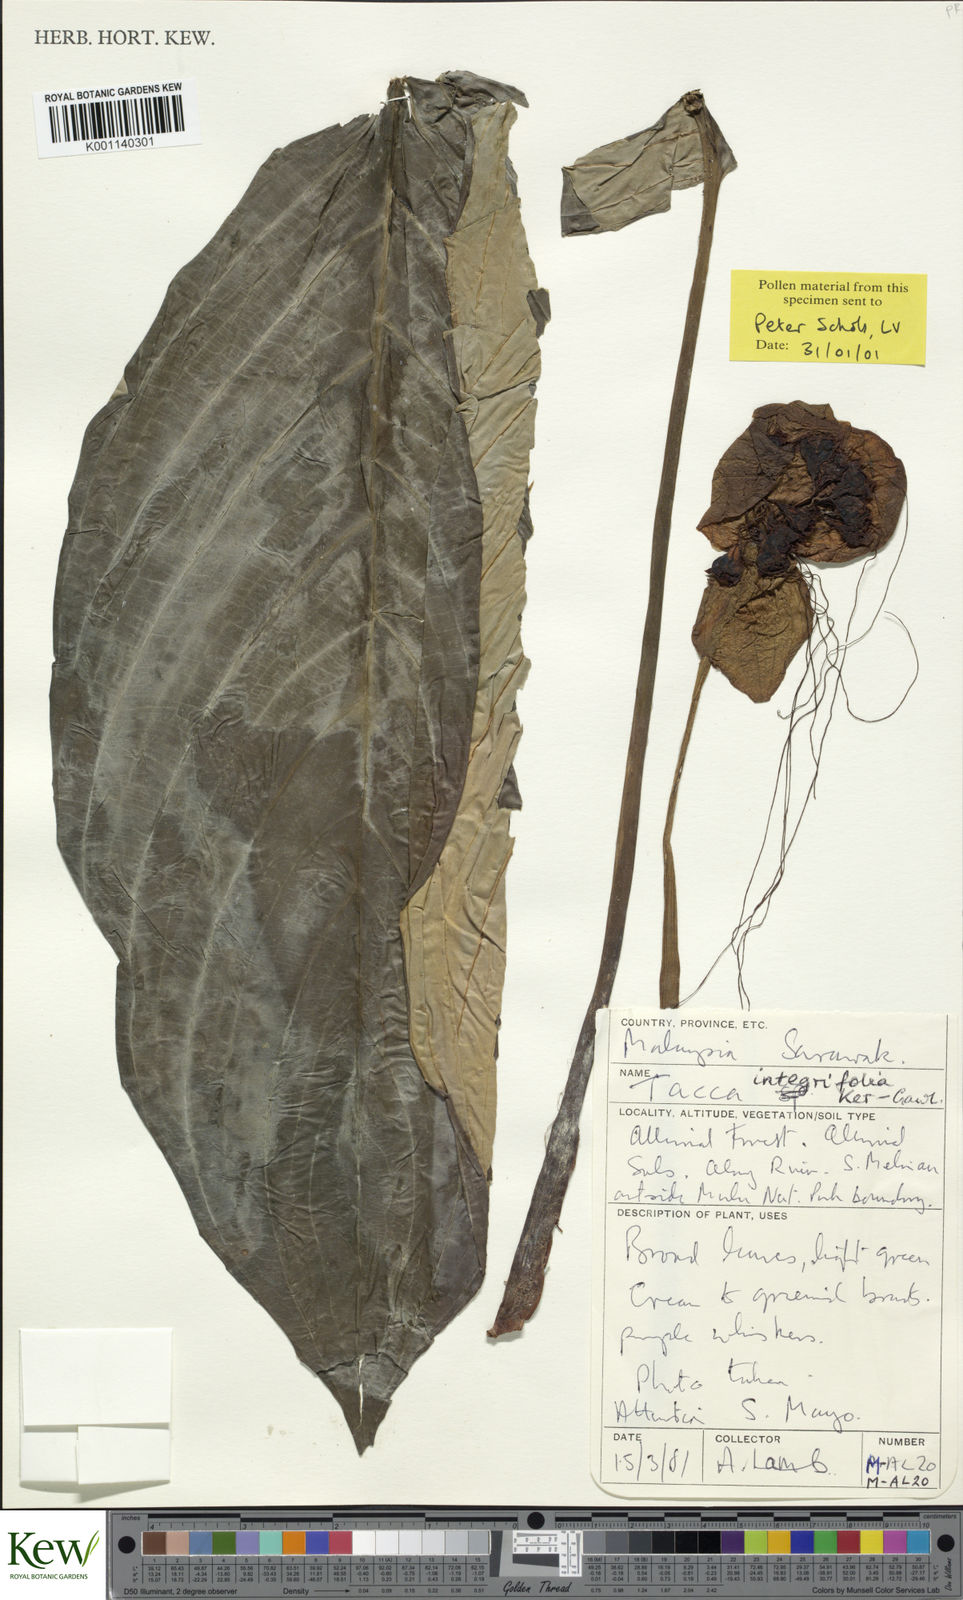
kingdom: Plantae
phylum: Tracheophyta
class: Liliopsida
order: Dioscoreales
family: Dioscoreaceae
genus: Tacca
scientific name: Tacca integrifolia
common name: Batplant
